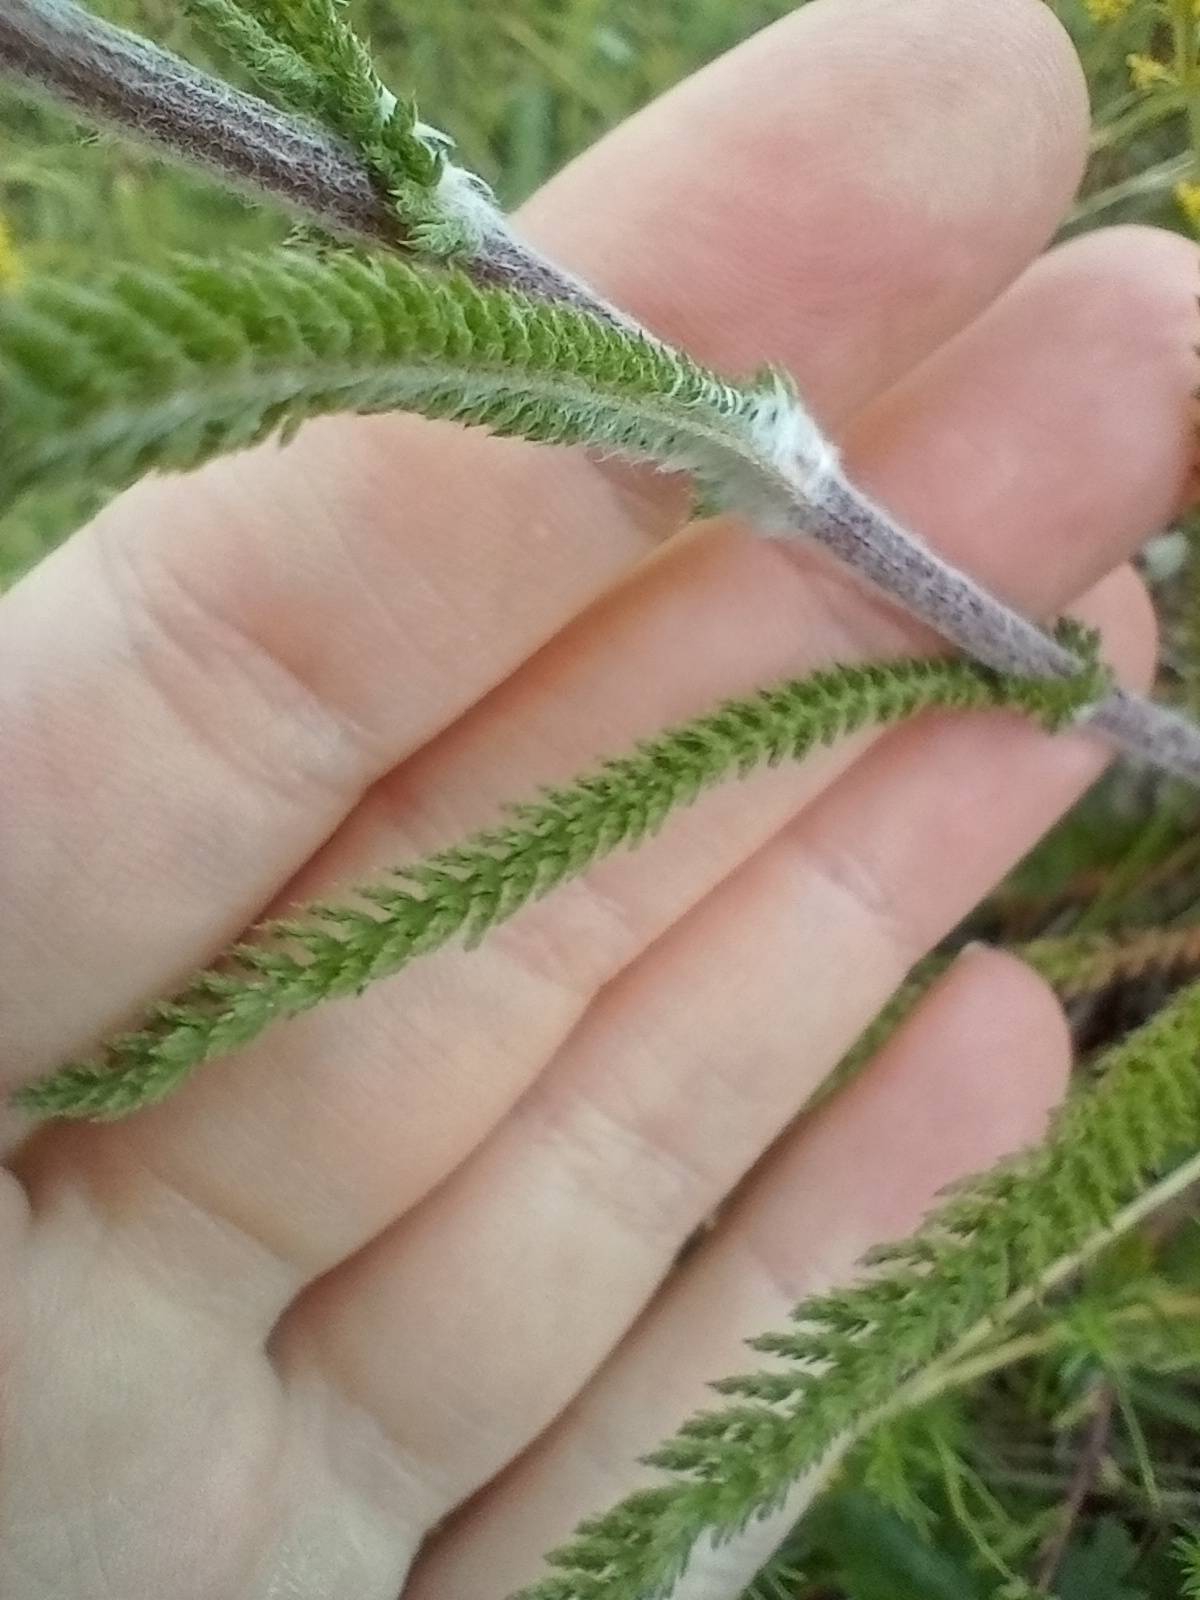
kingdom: Plantae
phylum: Tracheophyta
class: Magnoliopsida
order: Asterales
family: Asteraceae
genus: Achillea
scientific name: Achillea millefolium
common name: Almindelig røllike
